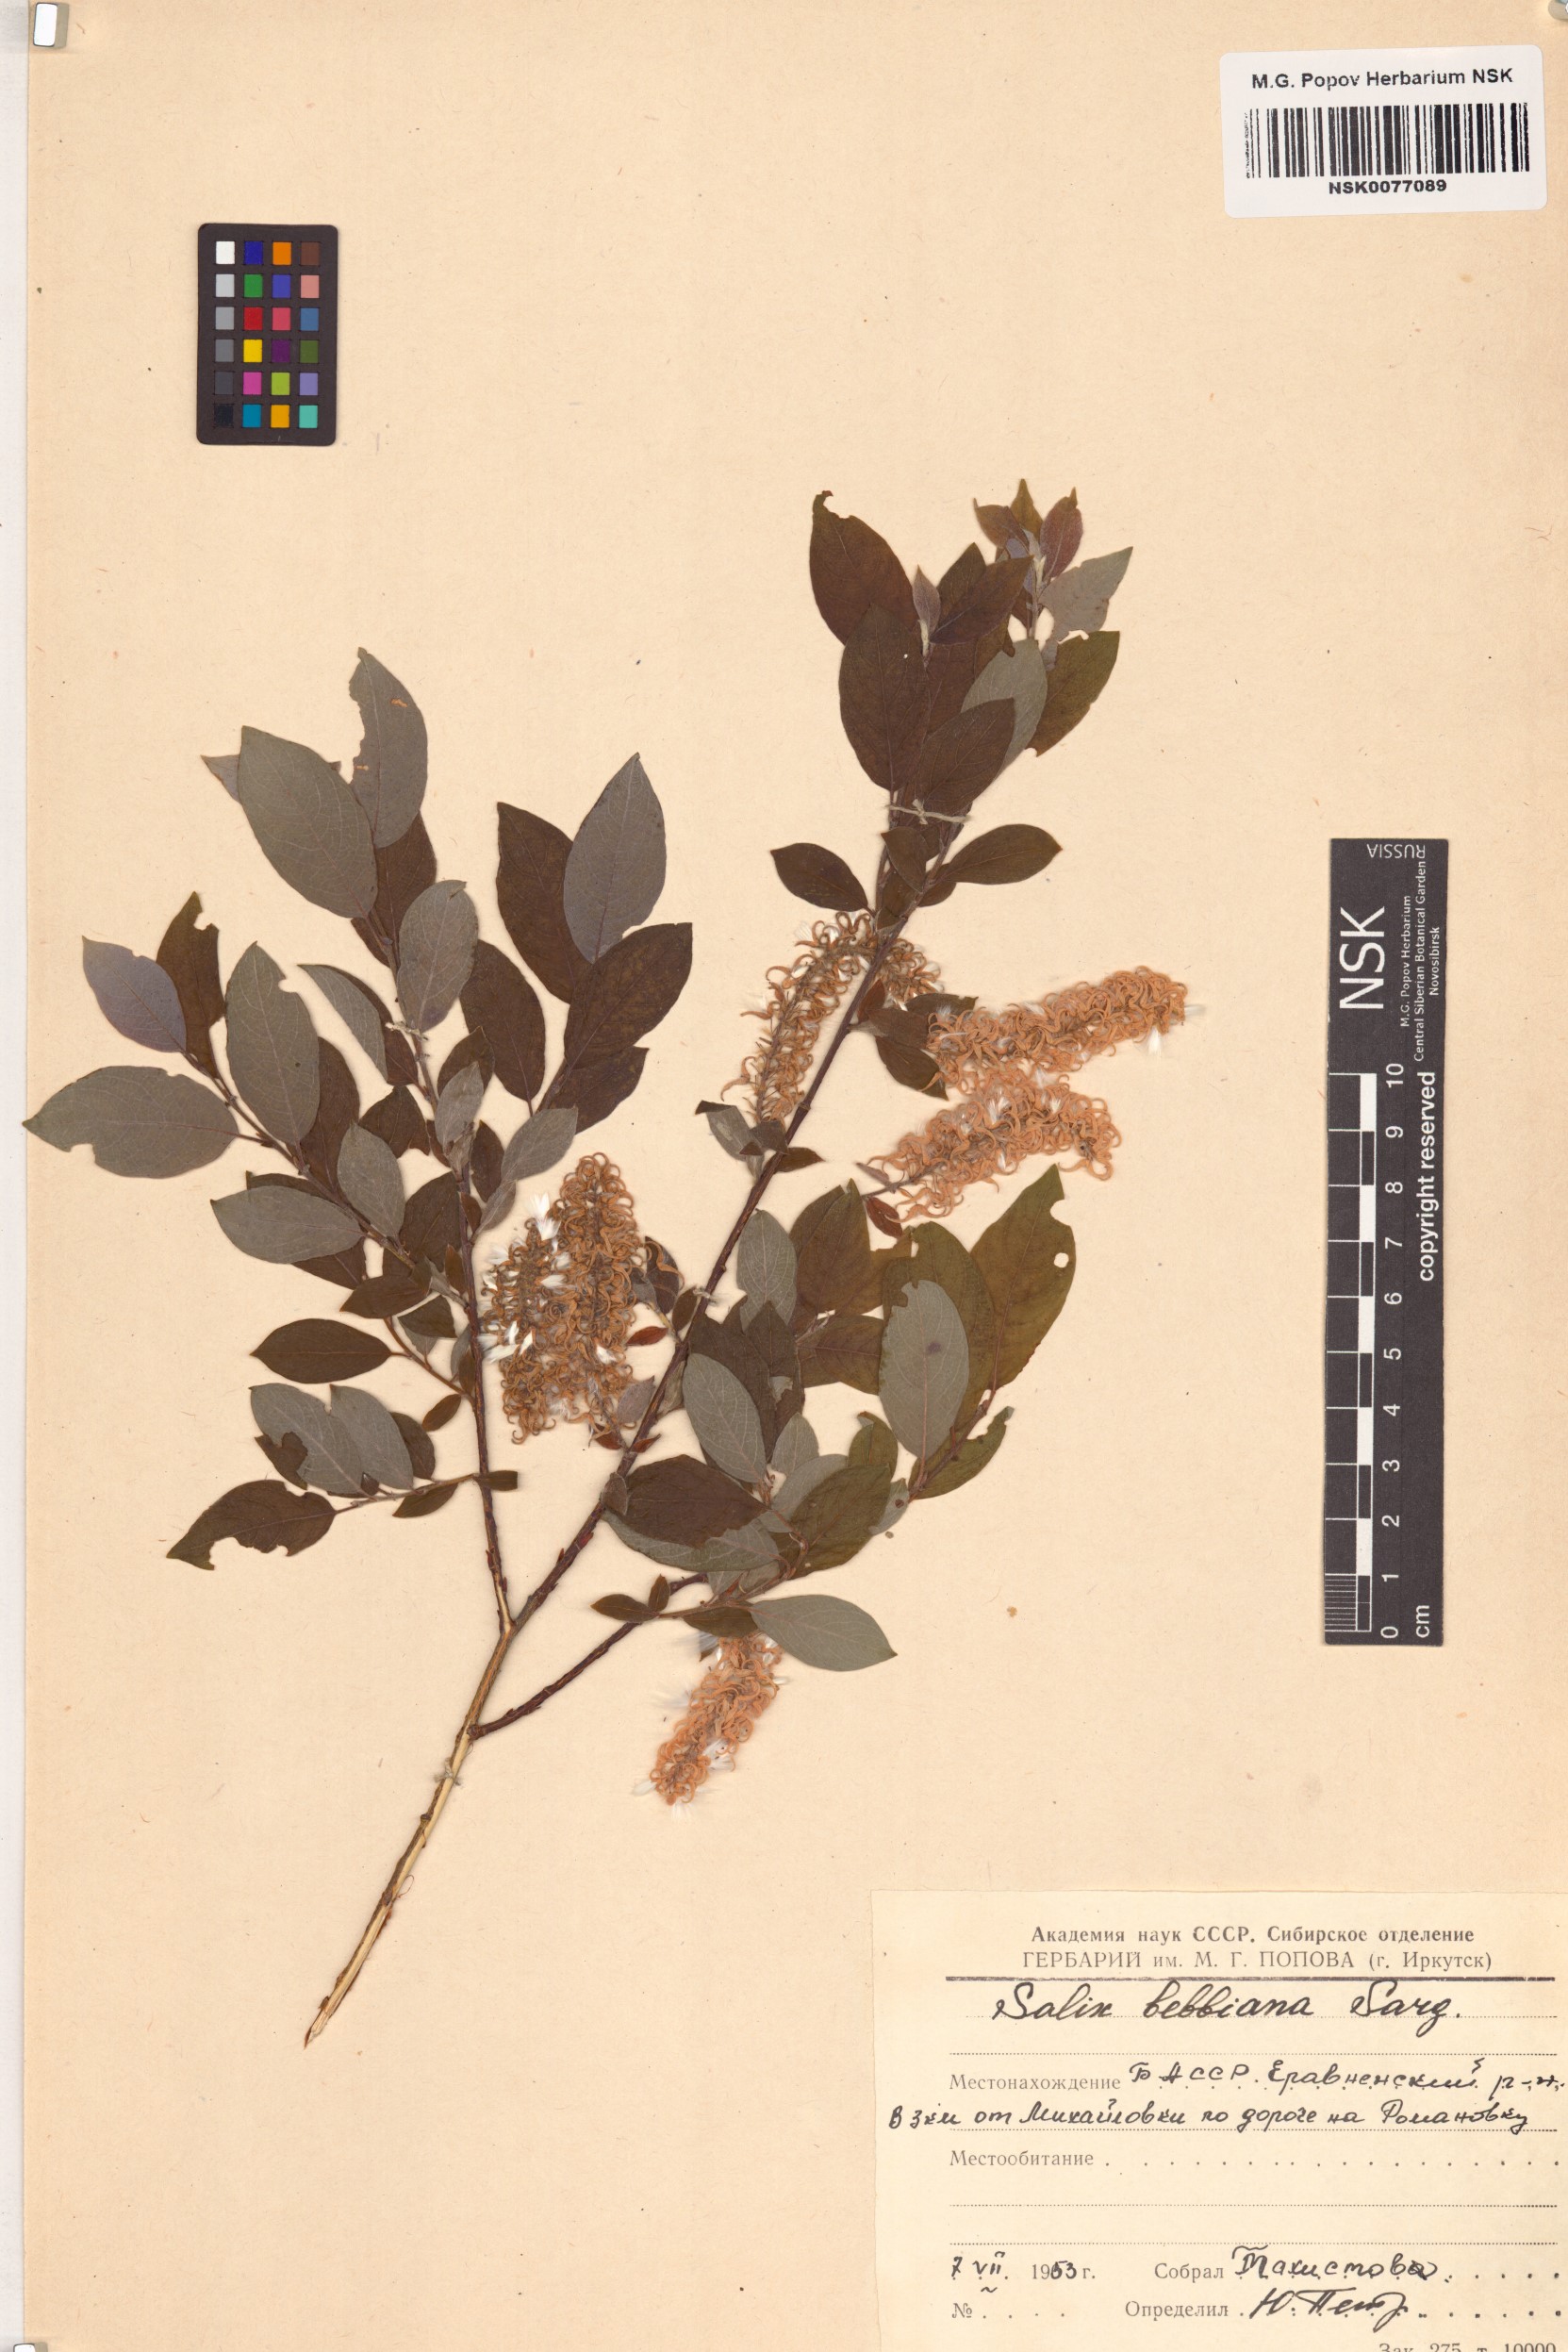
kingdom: Plantae
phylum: Tracheophyta
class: Magnoliopsida
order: Malpighiales
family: Salicaceae
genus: Salix
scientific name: Salix bebbiana
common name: Bebb's willow
